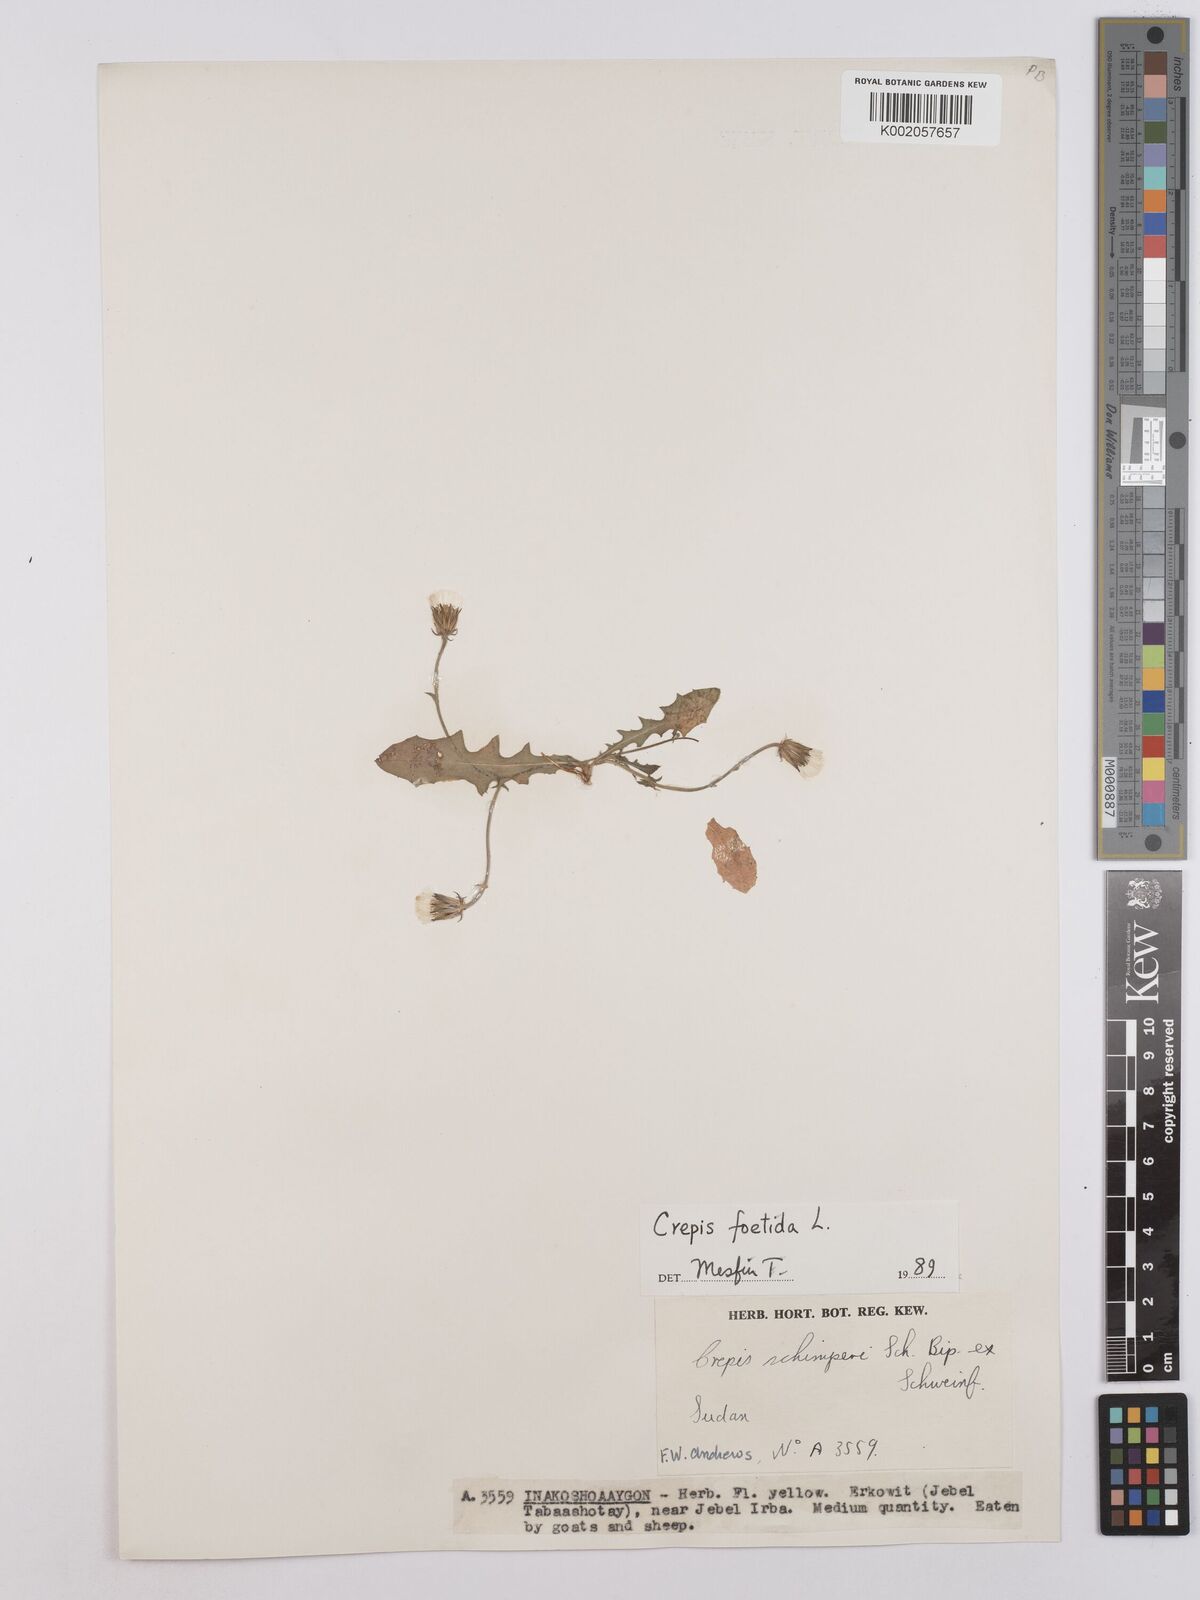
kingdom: Plantae
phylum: Tracheophyta
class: Magnoliopsida
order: Asterales
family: Asteraceae
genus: Crepis
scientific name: Crepis foetida
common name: Stinking hawk's-beard
